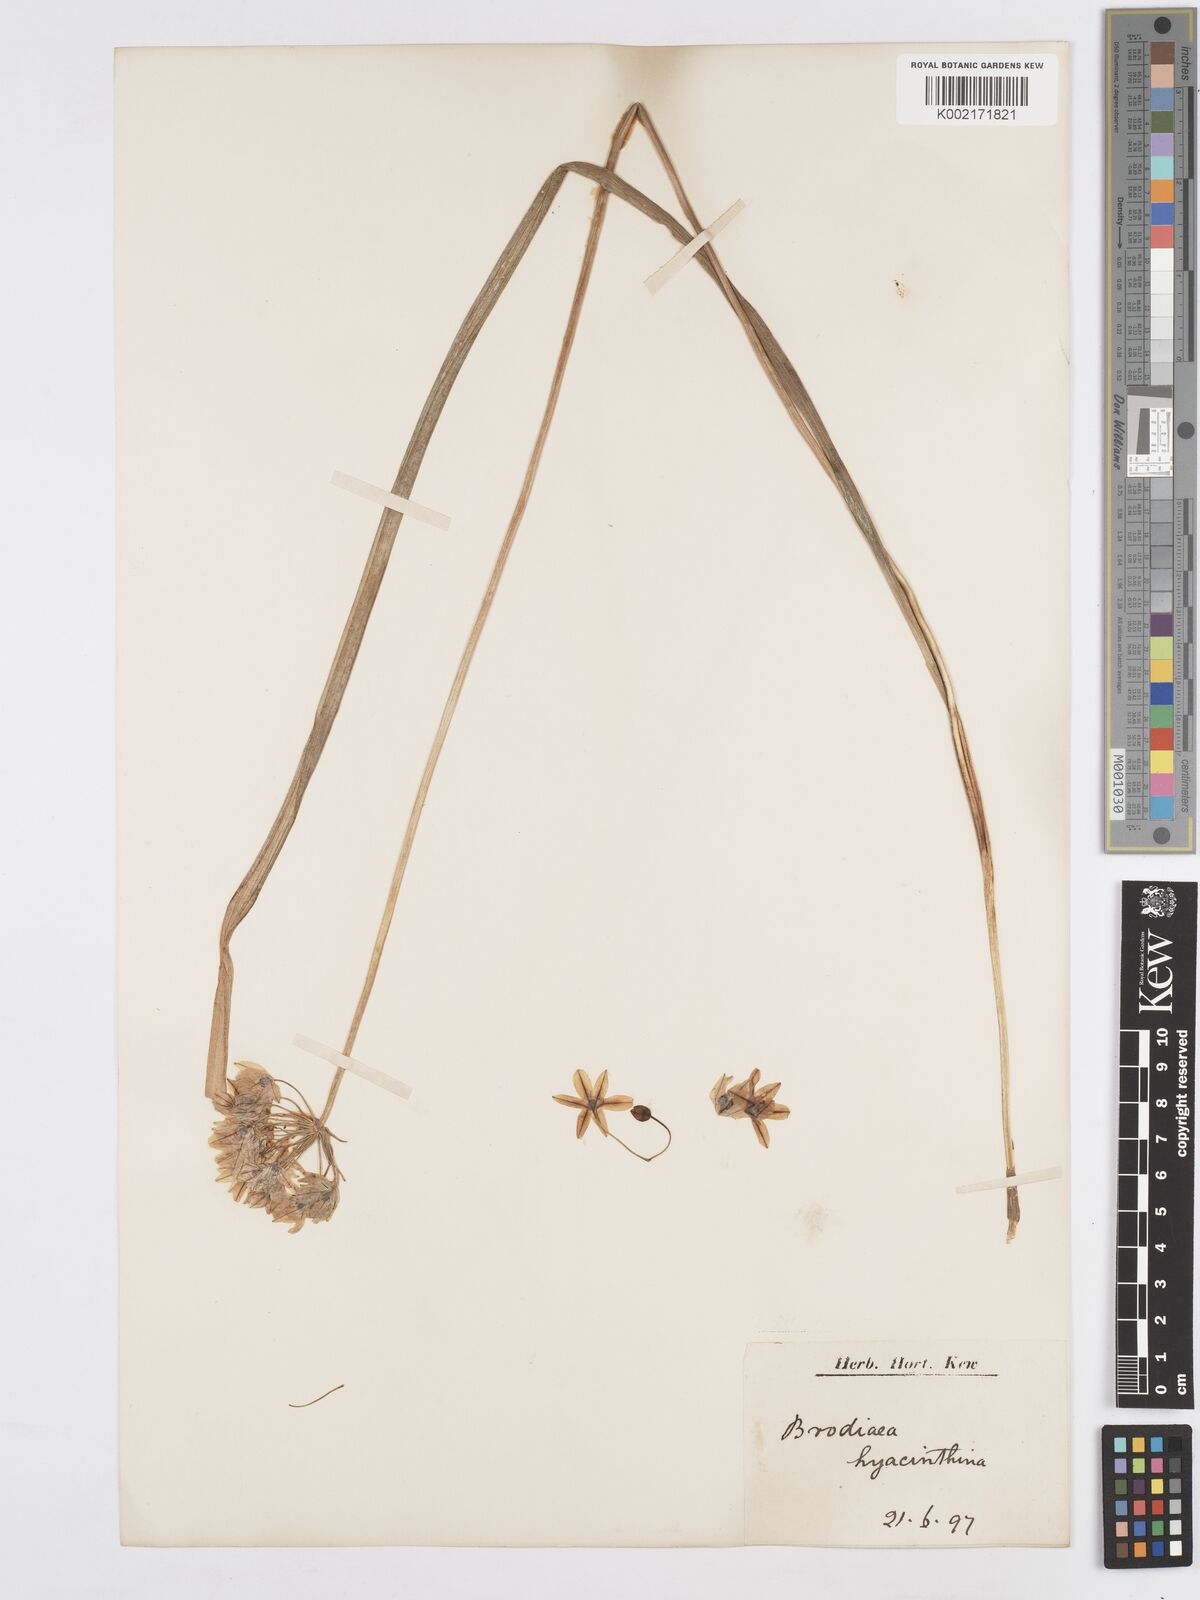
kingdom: Plantae
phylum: Tracheophyta
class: Liliopsida
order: Asparagales
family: Asparagaceae
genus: Triteleia
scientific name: Triteleia hyacinthina
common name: White brodiaea
